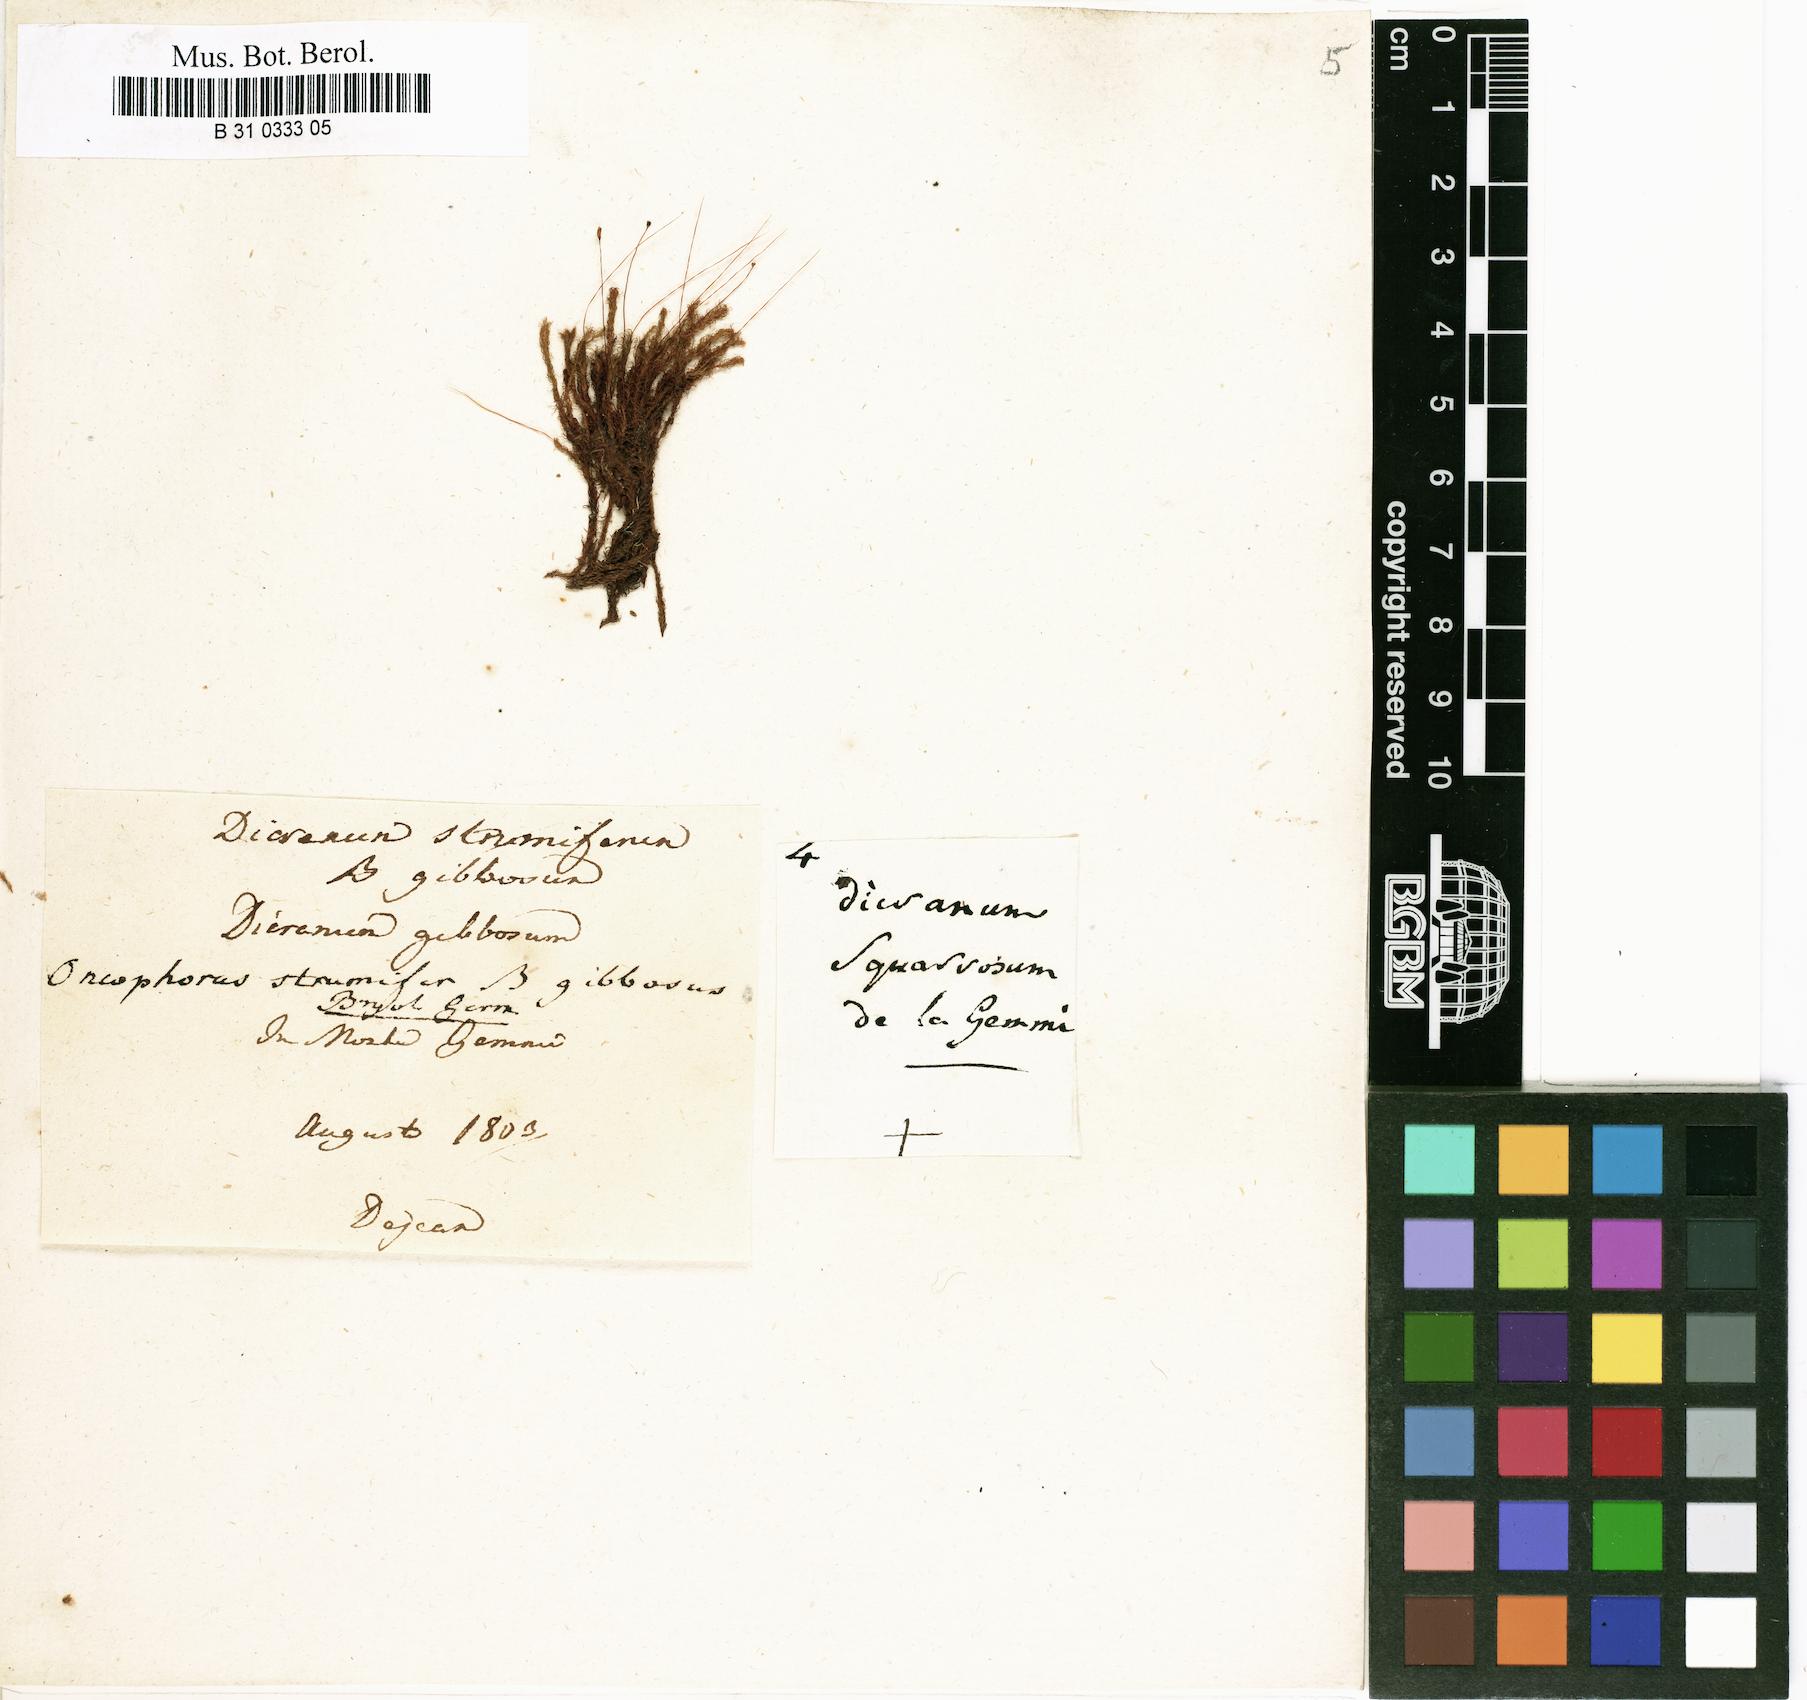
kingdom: Plantae
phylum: Bryophyta
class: Bryopsida
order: Dicranales
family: Rhabdoweisiaceae
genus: Cynodontium
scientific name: Cynodontium strumiferum
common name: Swollen dogtooth moss
